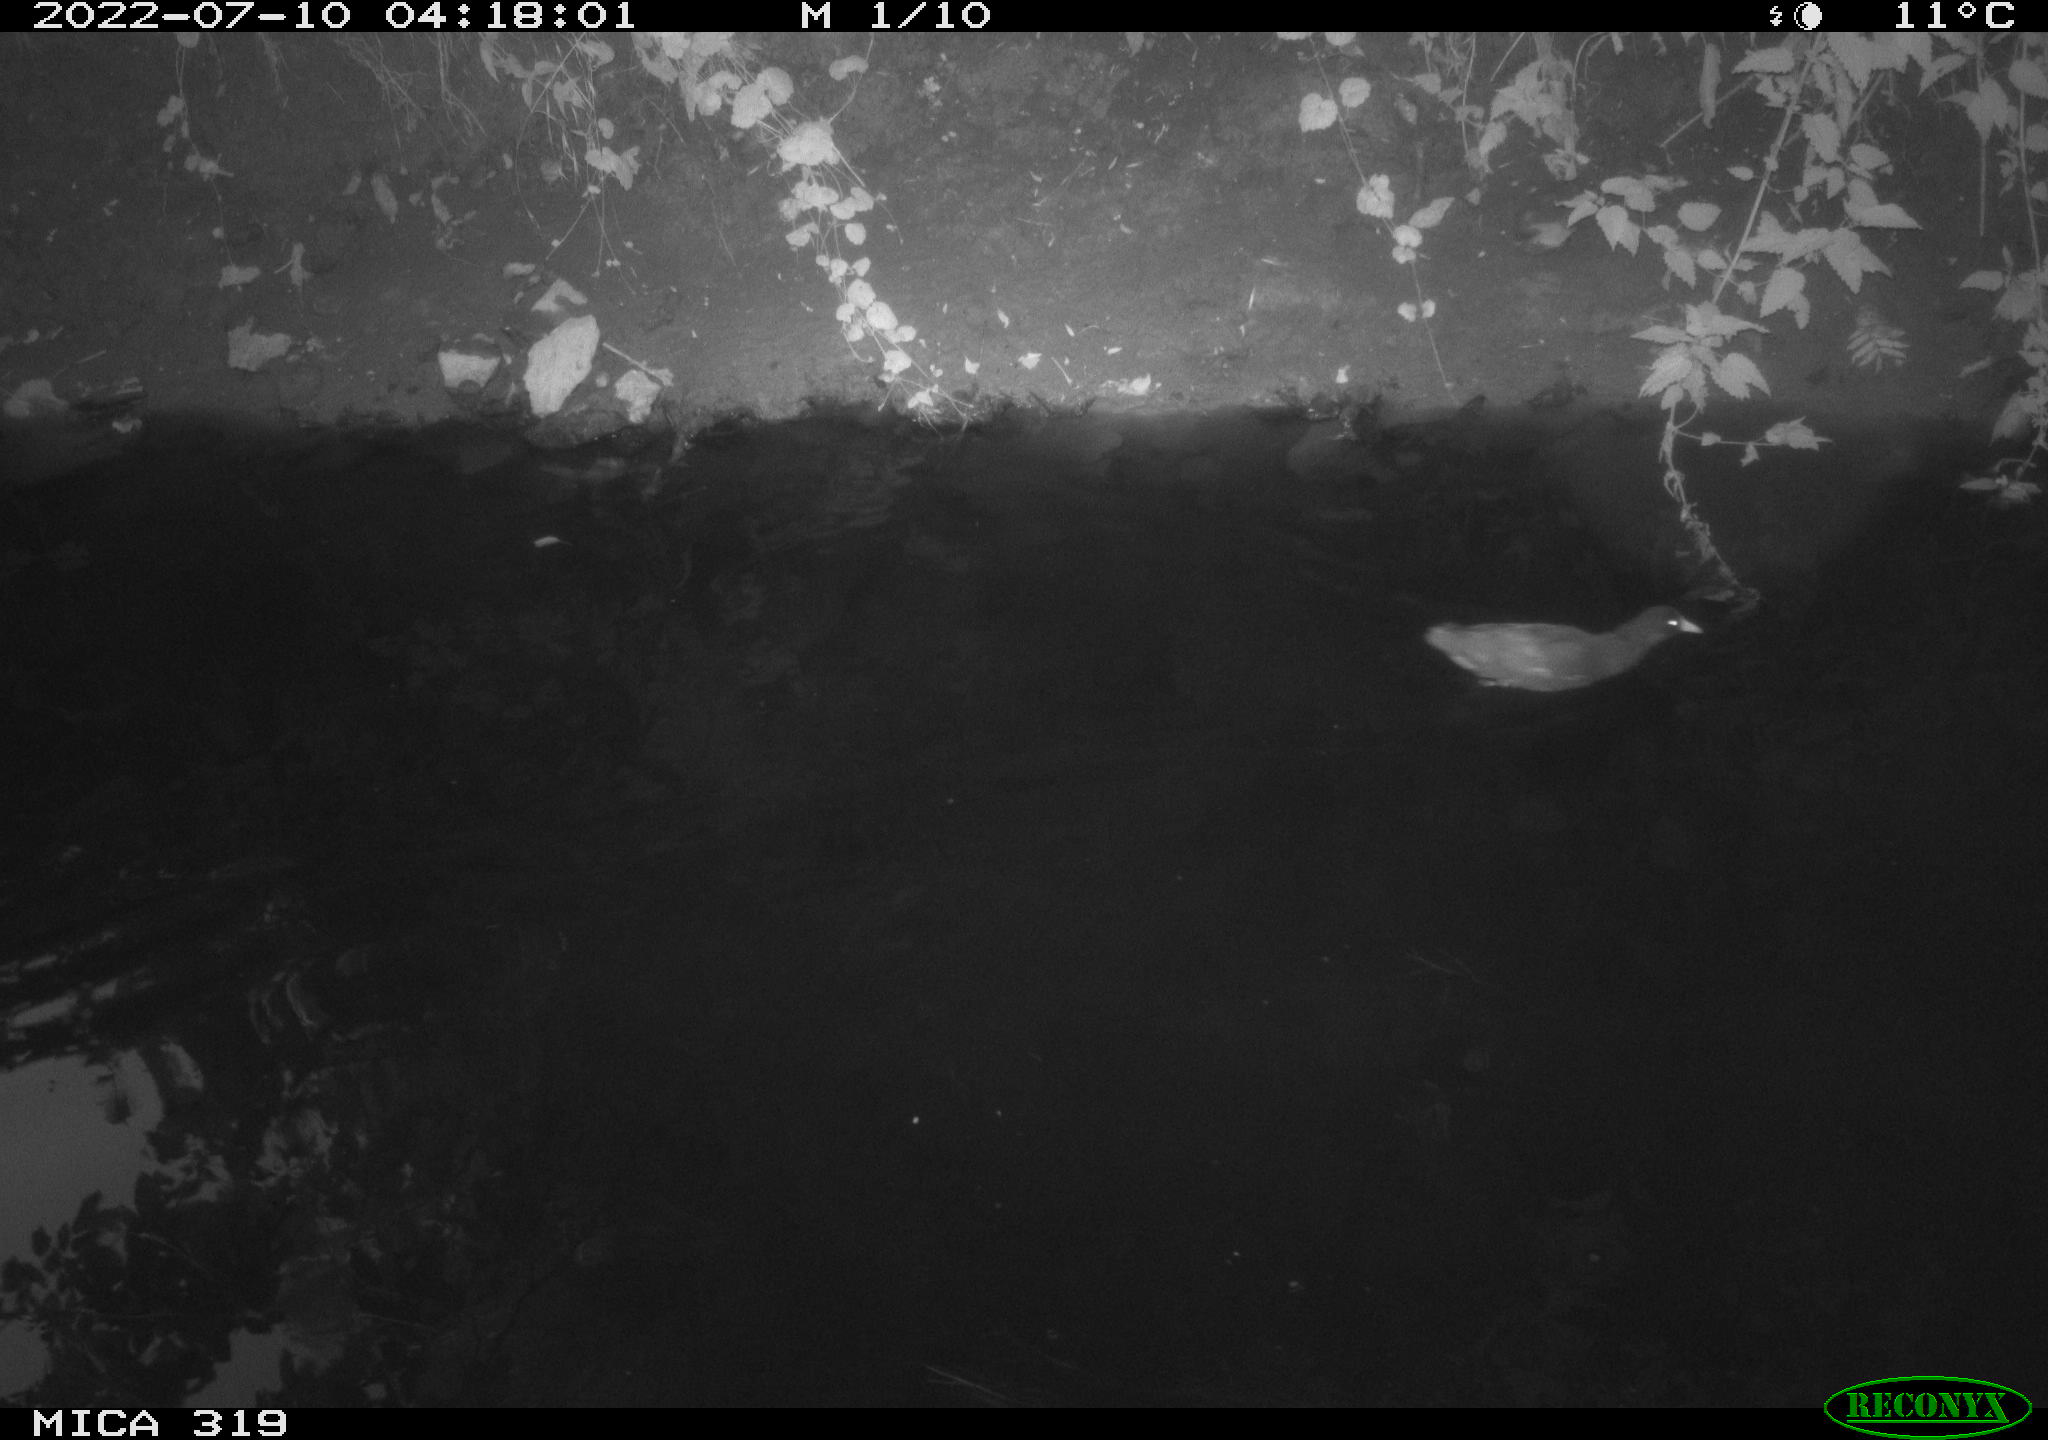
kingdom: Animalia
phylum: Chordata
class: Aves
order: Gruiformes
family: Rallidae
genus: Gallinula
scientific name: Gallinula chloropus
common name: Common moorhen
